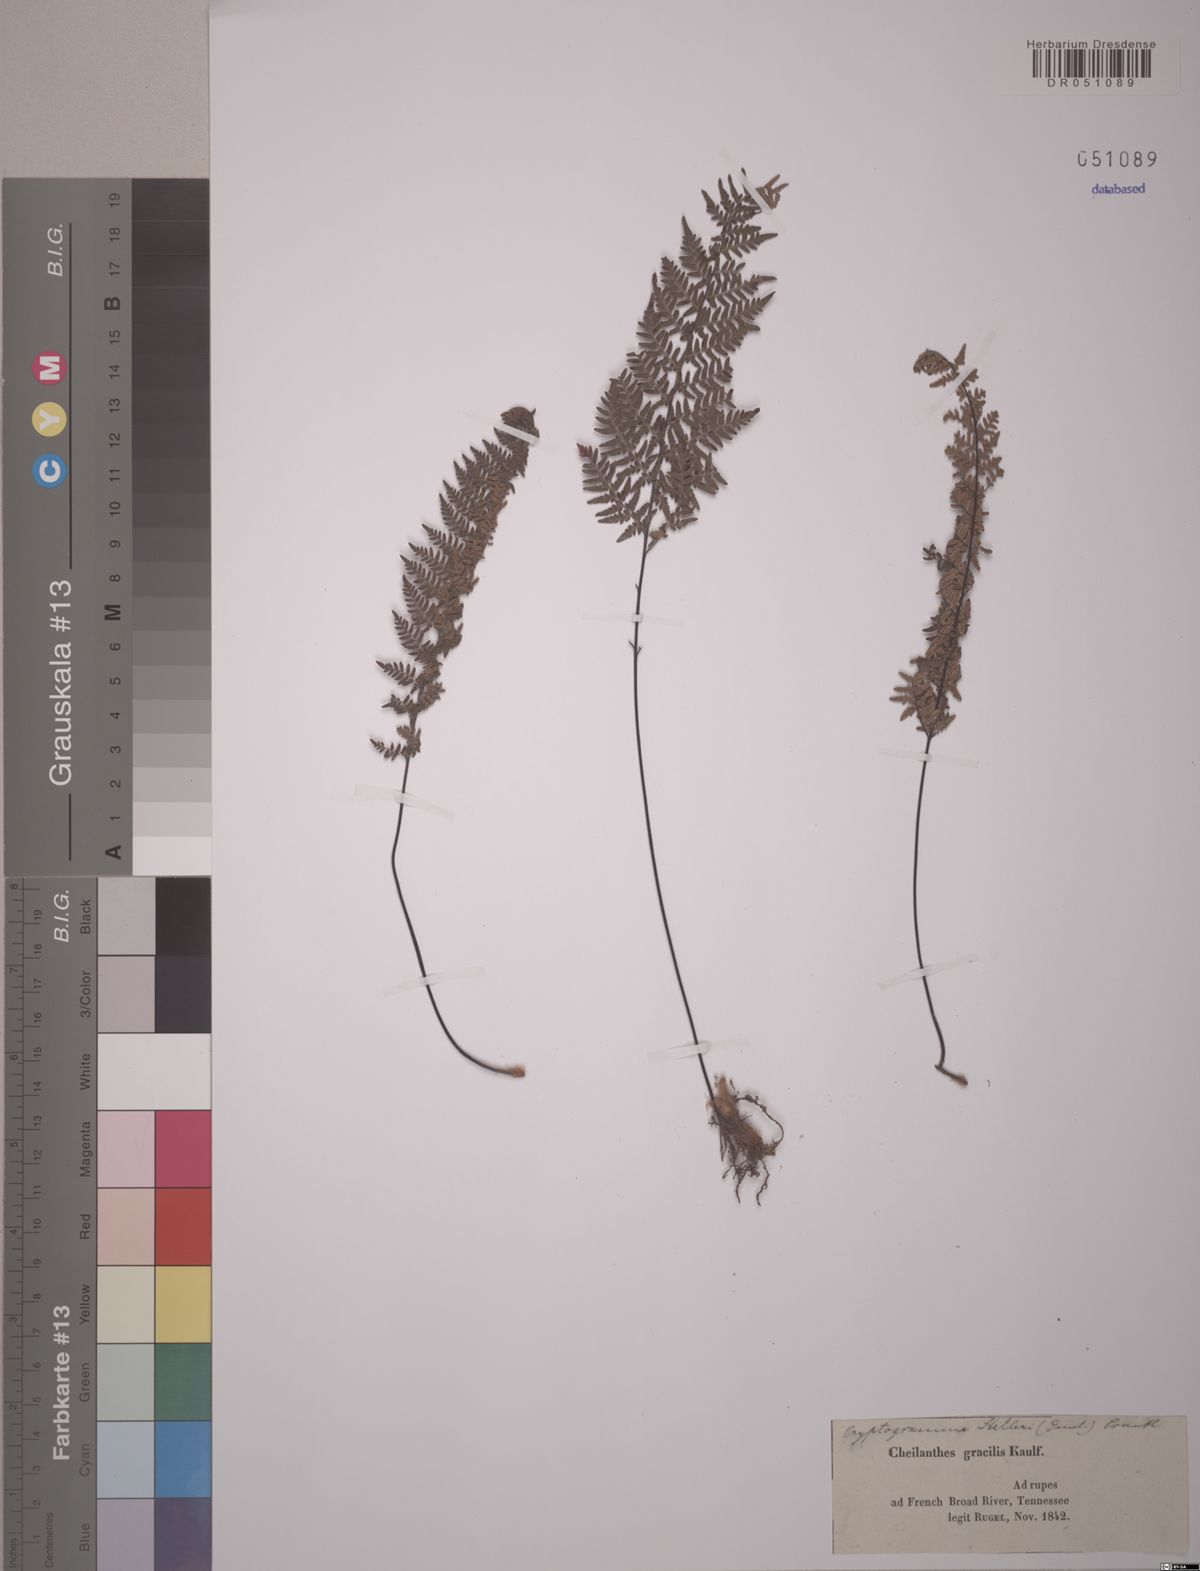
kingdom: Plantae
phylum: Tracheophyta
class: Polypodiopsida
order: Polypodiales
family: Pteridaceae
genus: Cryptogramma
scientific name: Cryptogramma stelleri
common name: Cliff-brake
